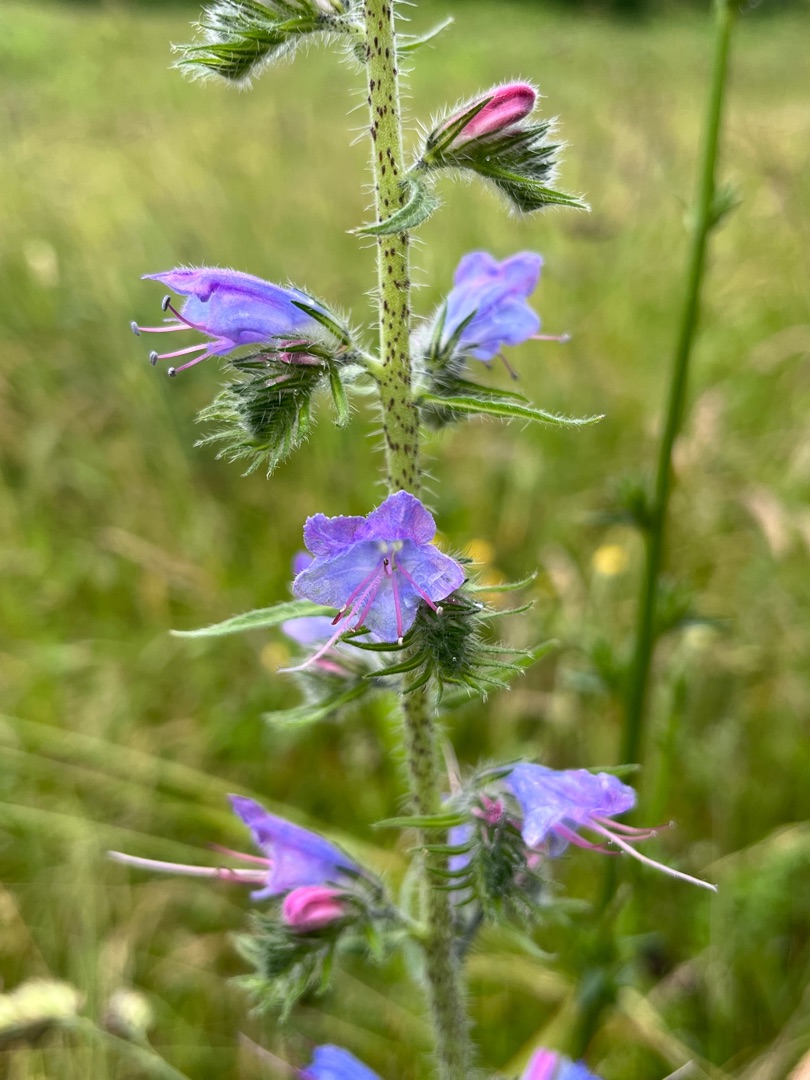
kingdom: Plantae
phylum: Tracheophyta
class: Magnoliopsida
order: Boraginales
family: Boraginaceae
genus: Echium
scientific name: Echium vulgare
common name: Slangehoved
